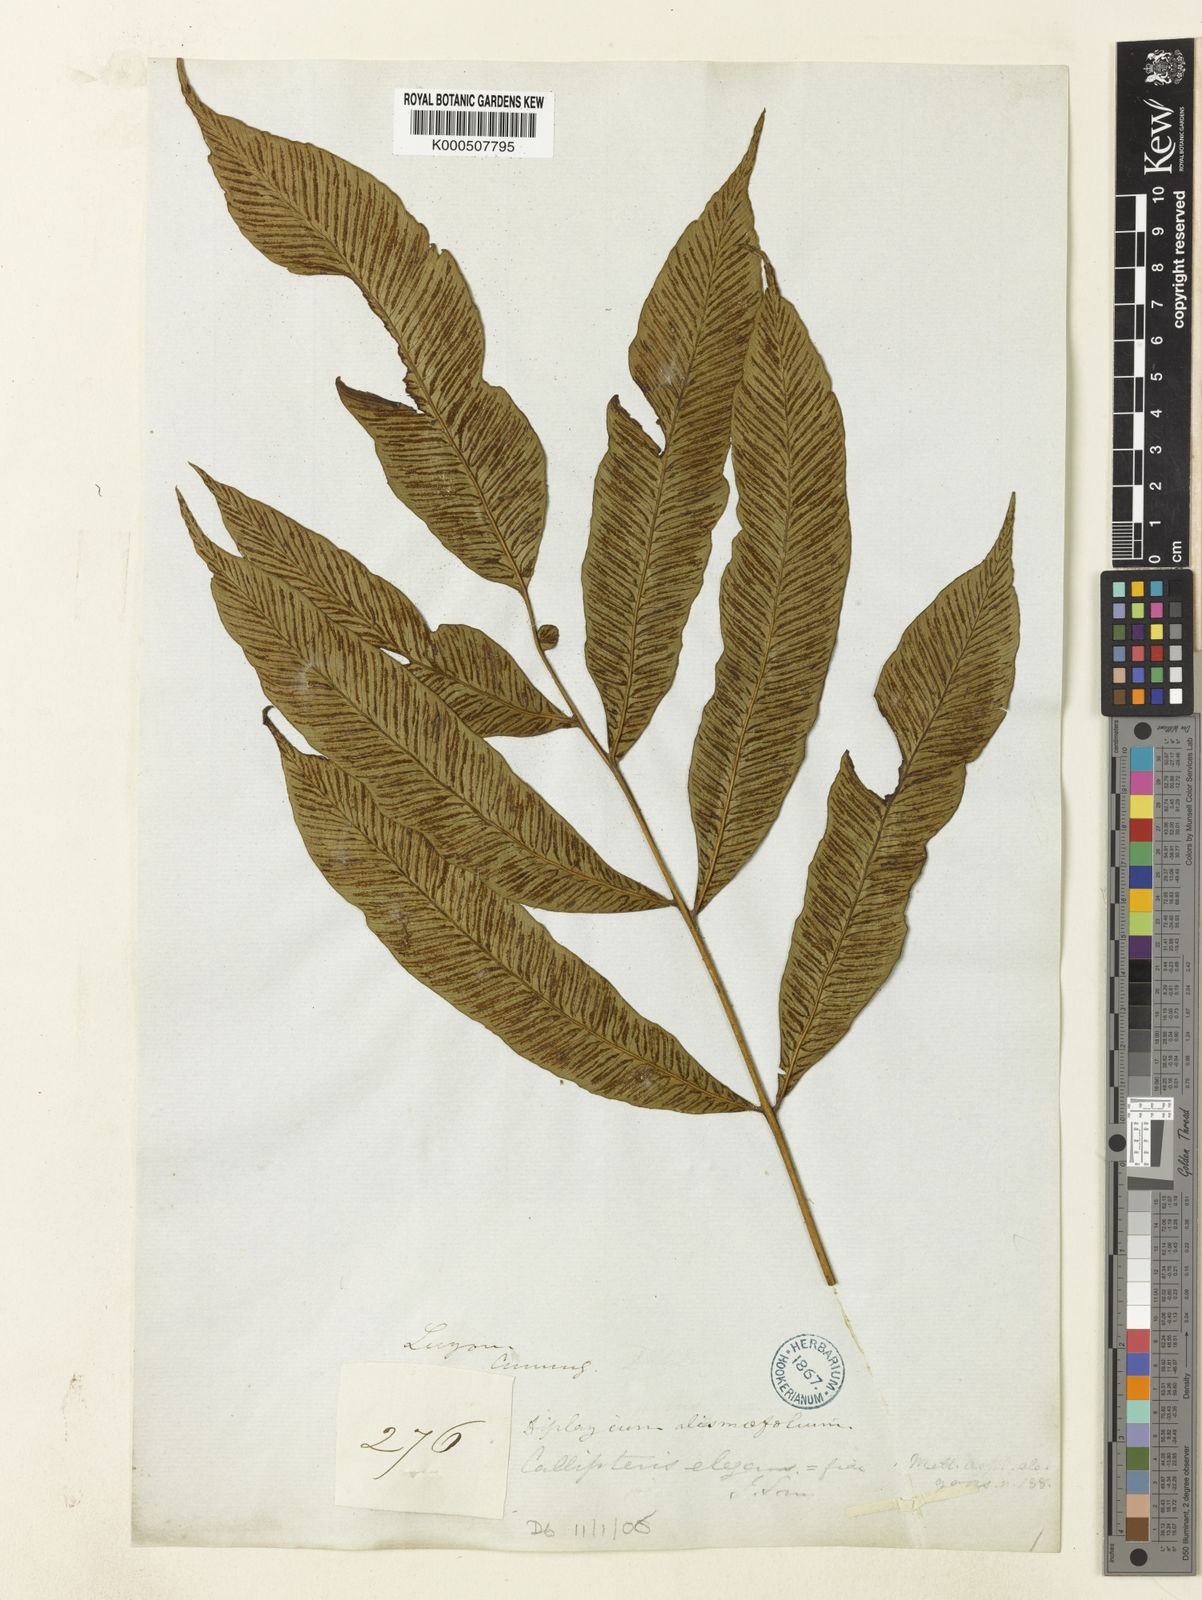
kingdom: Plantae
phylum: Tracheophyta
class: Polypodiopsida
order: Polypodiales
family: Athyriaceae
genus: Diplazium
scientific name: Diplazium
